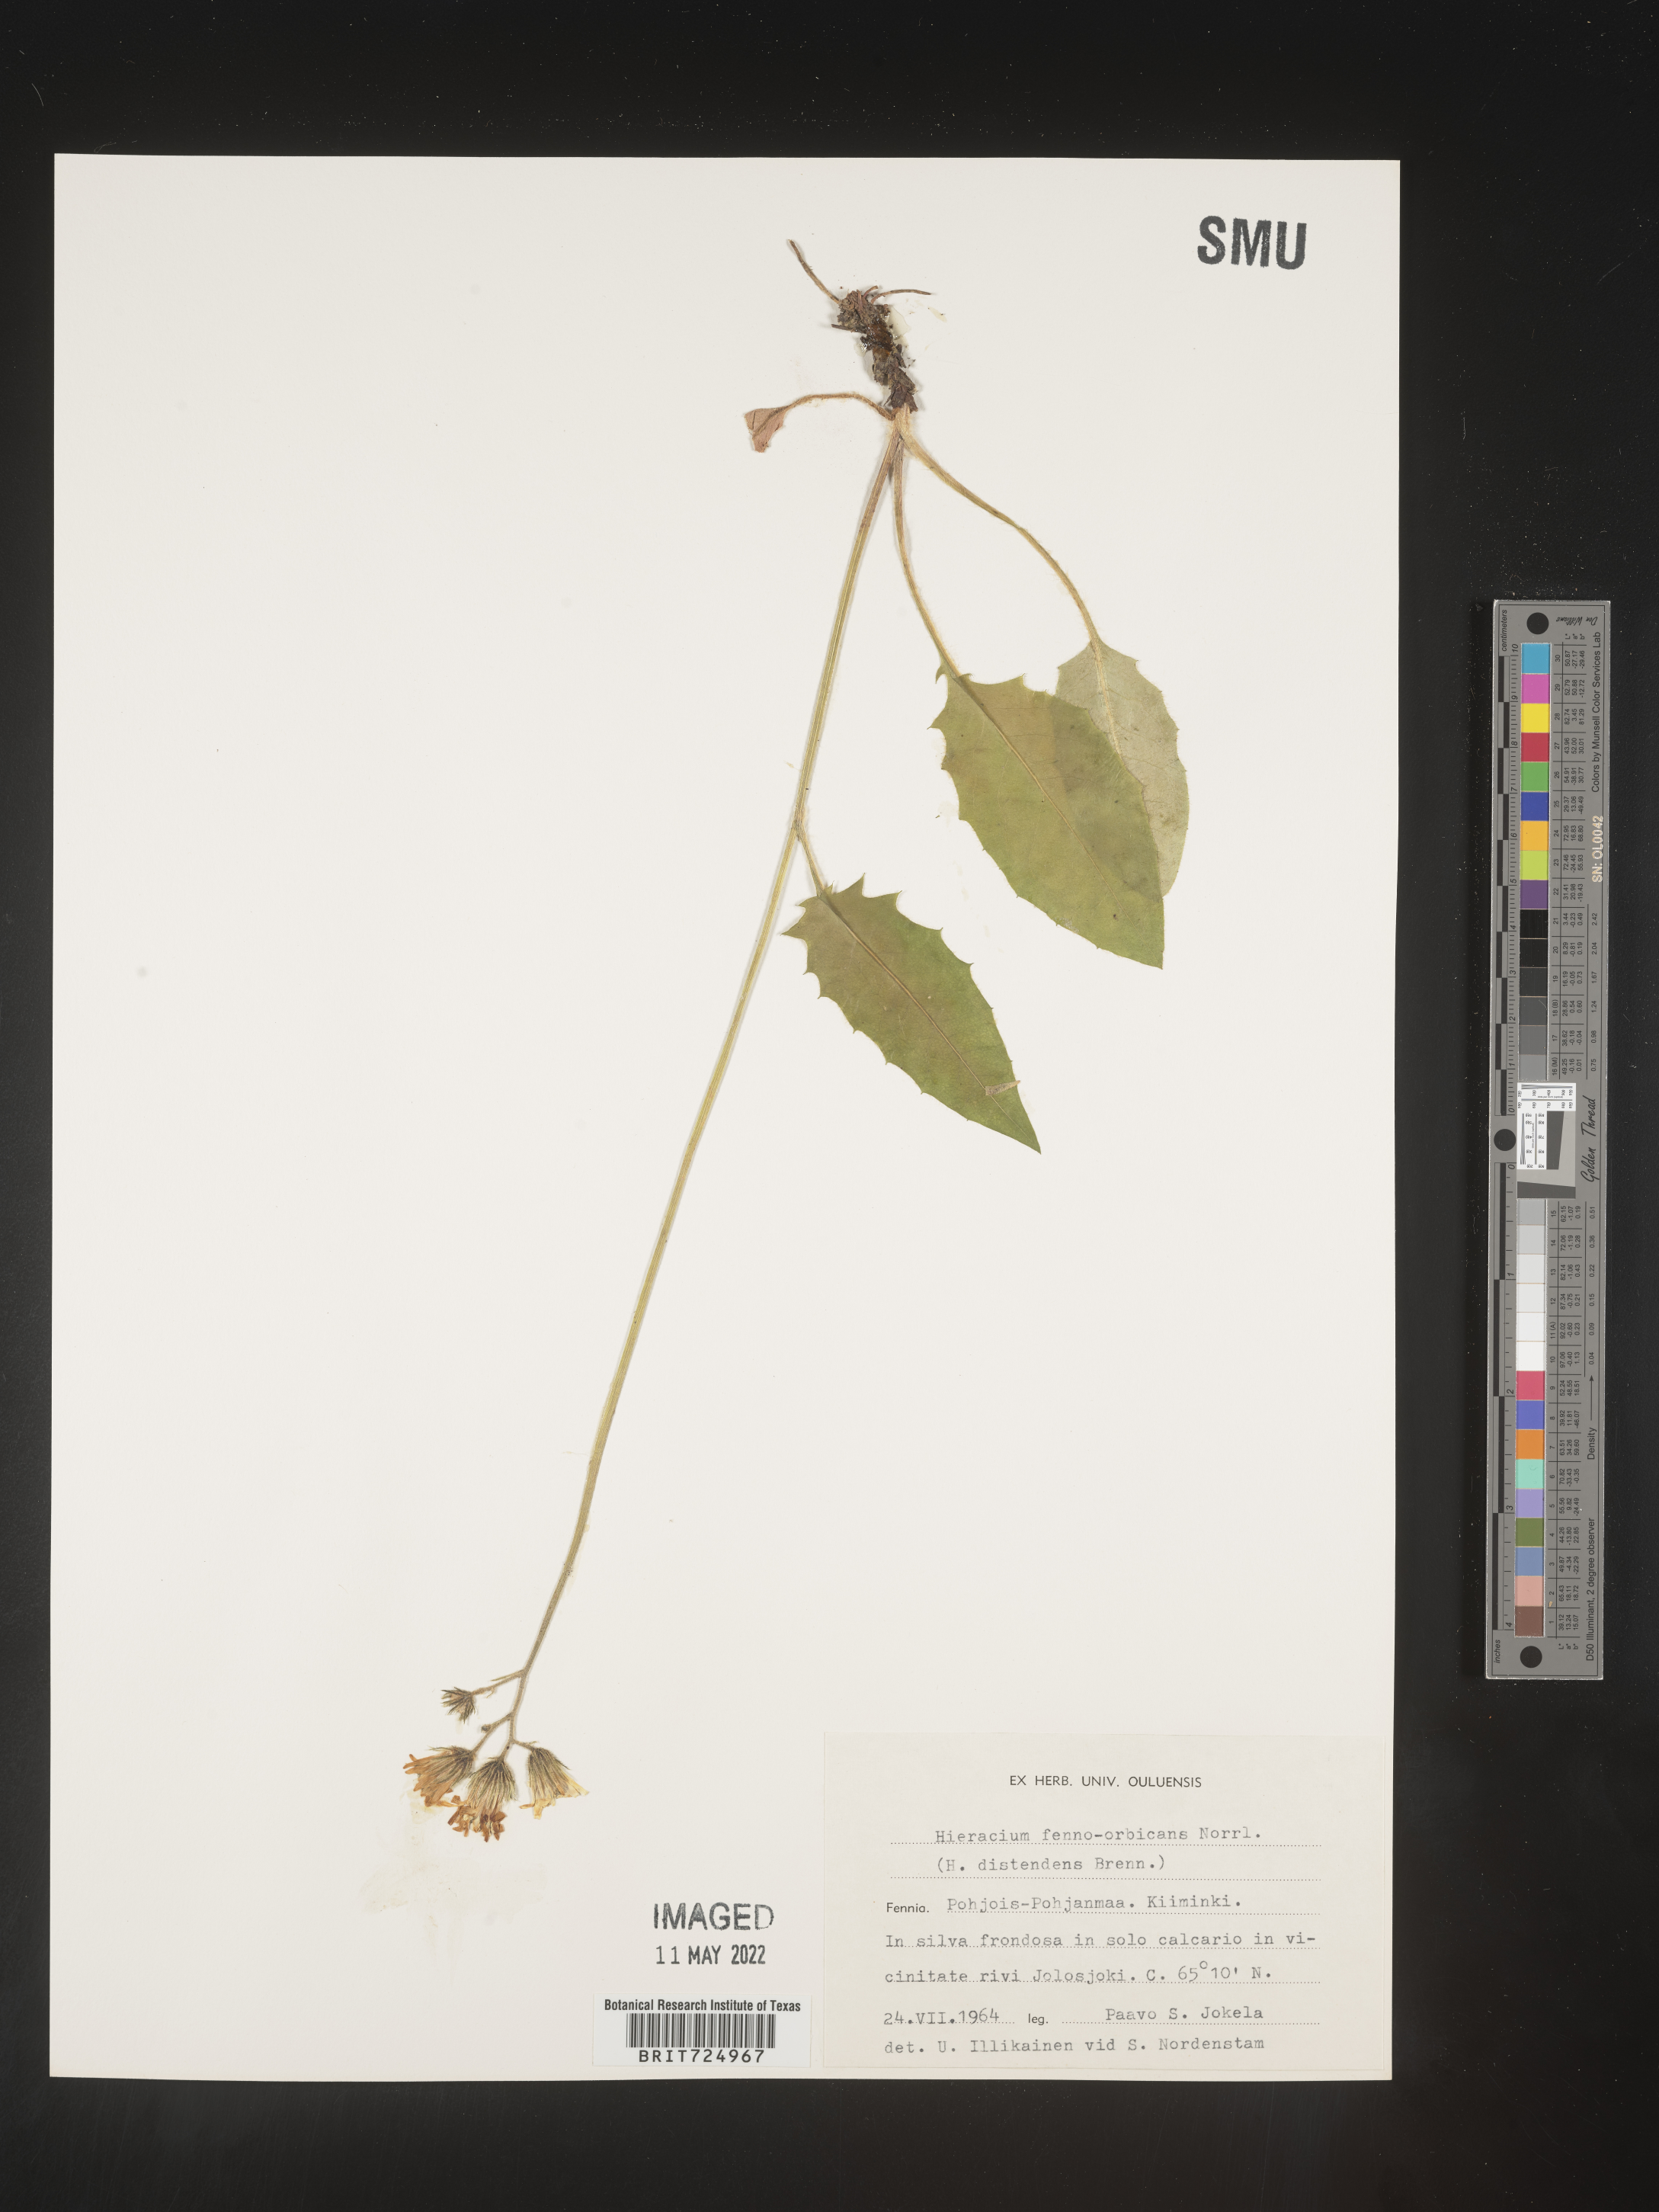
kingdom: Plantae
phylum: Tracheophyta
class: Magnoliopsida
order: Asterales
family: Asteraceae
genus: Hieracium
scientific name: Hieracium
